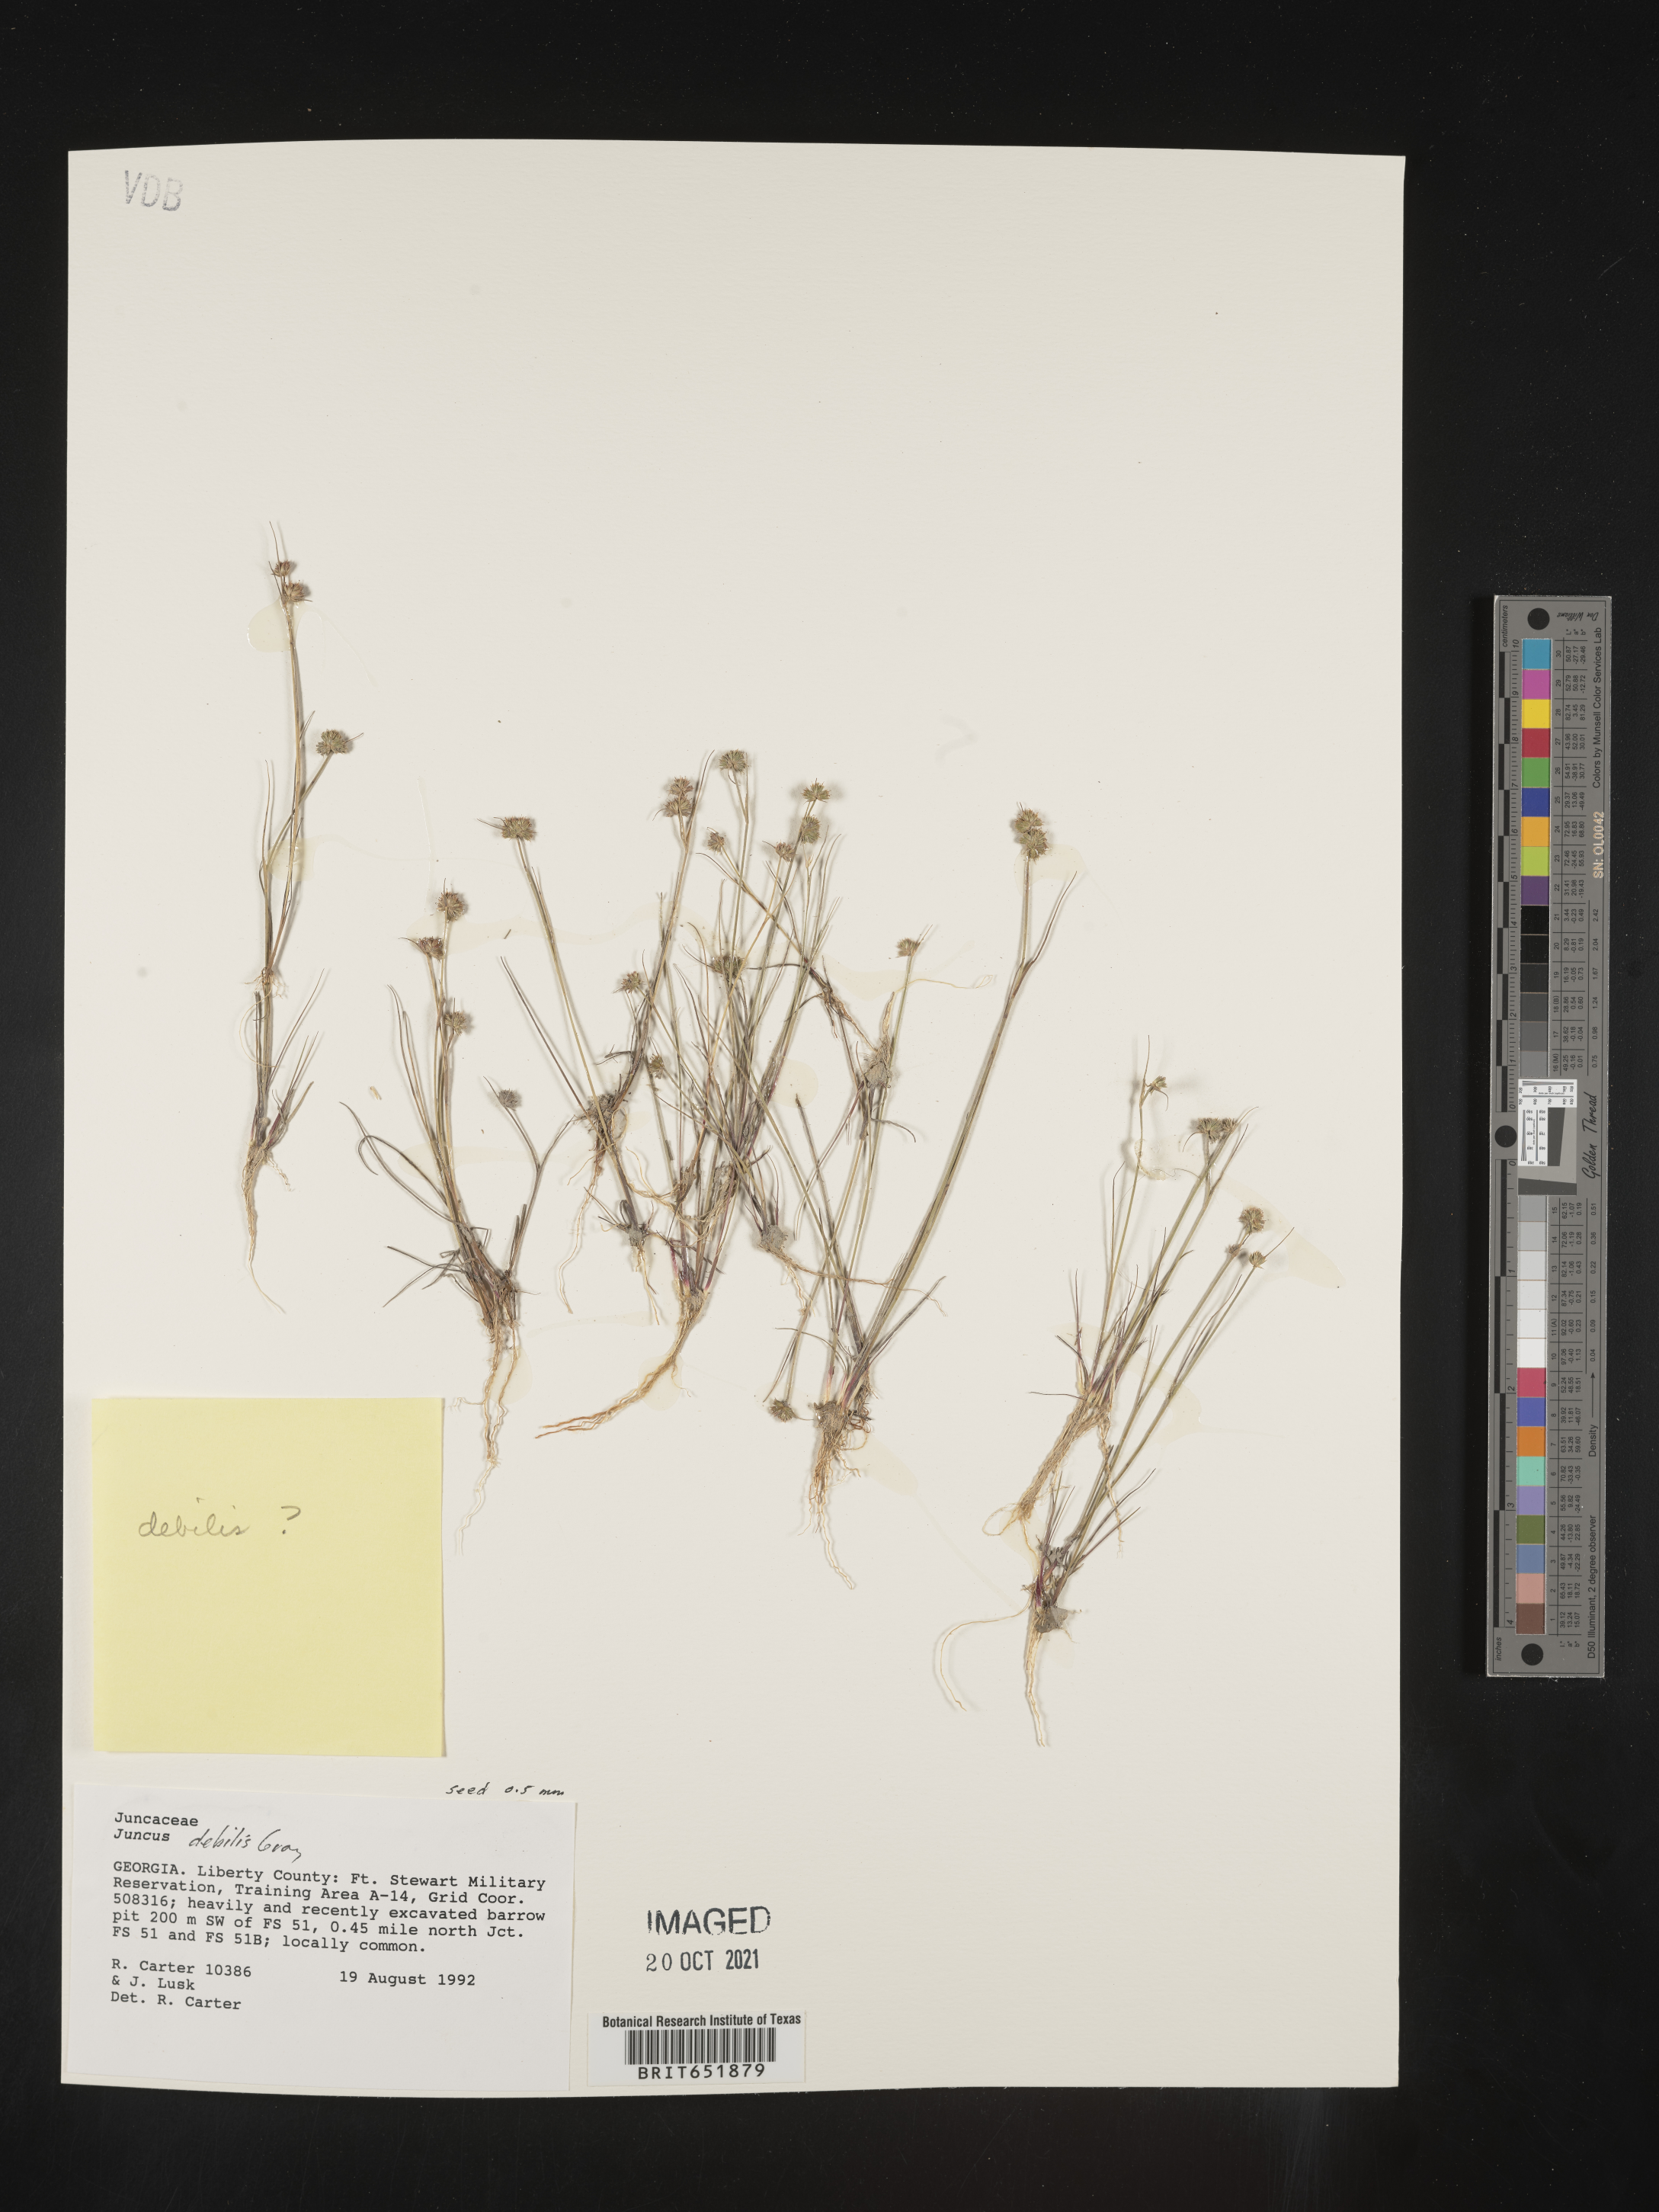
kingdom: Plantae
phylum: Tracheophyta
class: Liliopsida
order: Poales
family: Juncaceae
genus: Juncus
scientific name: Juncus debilis
